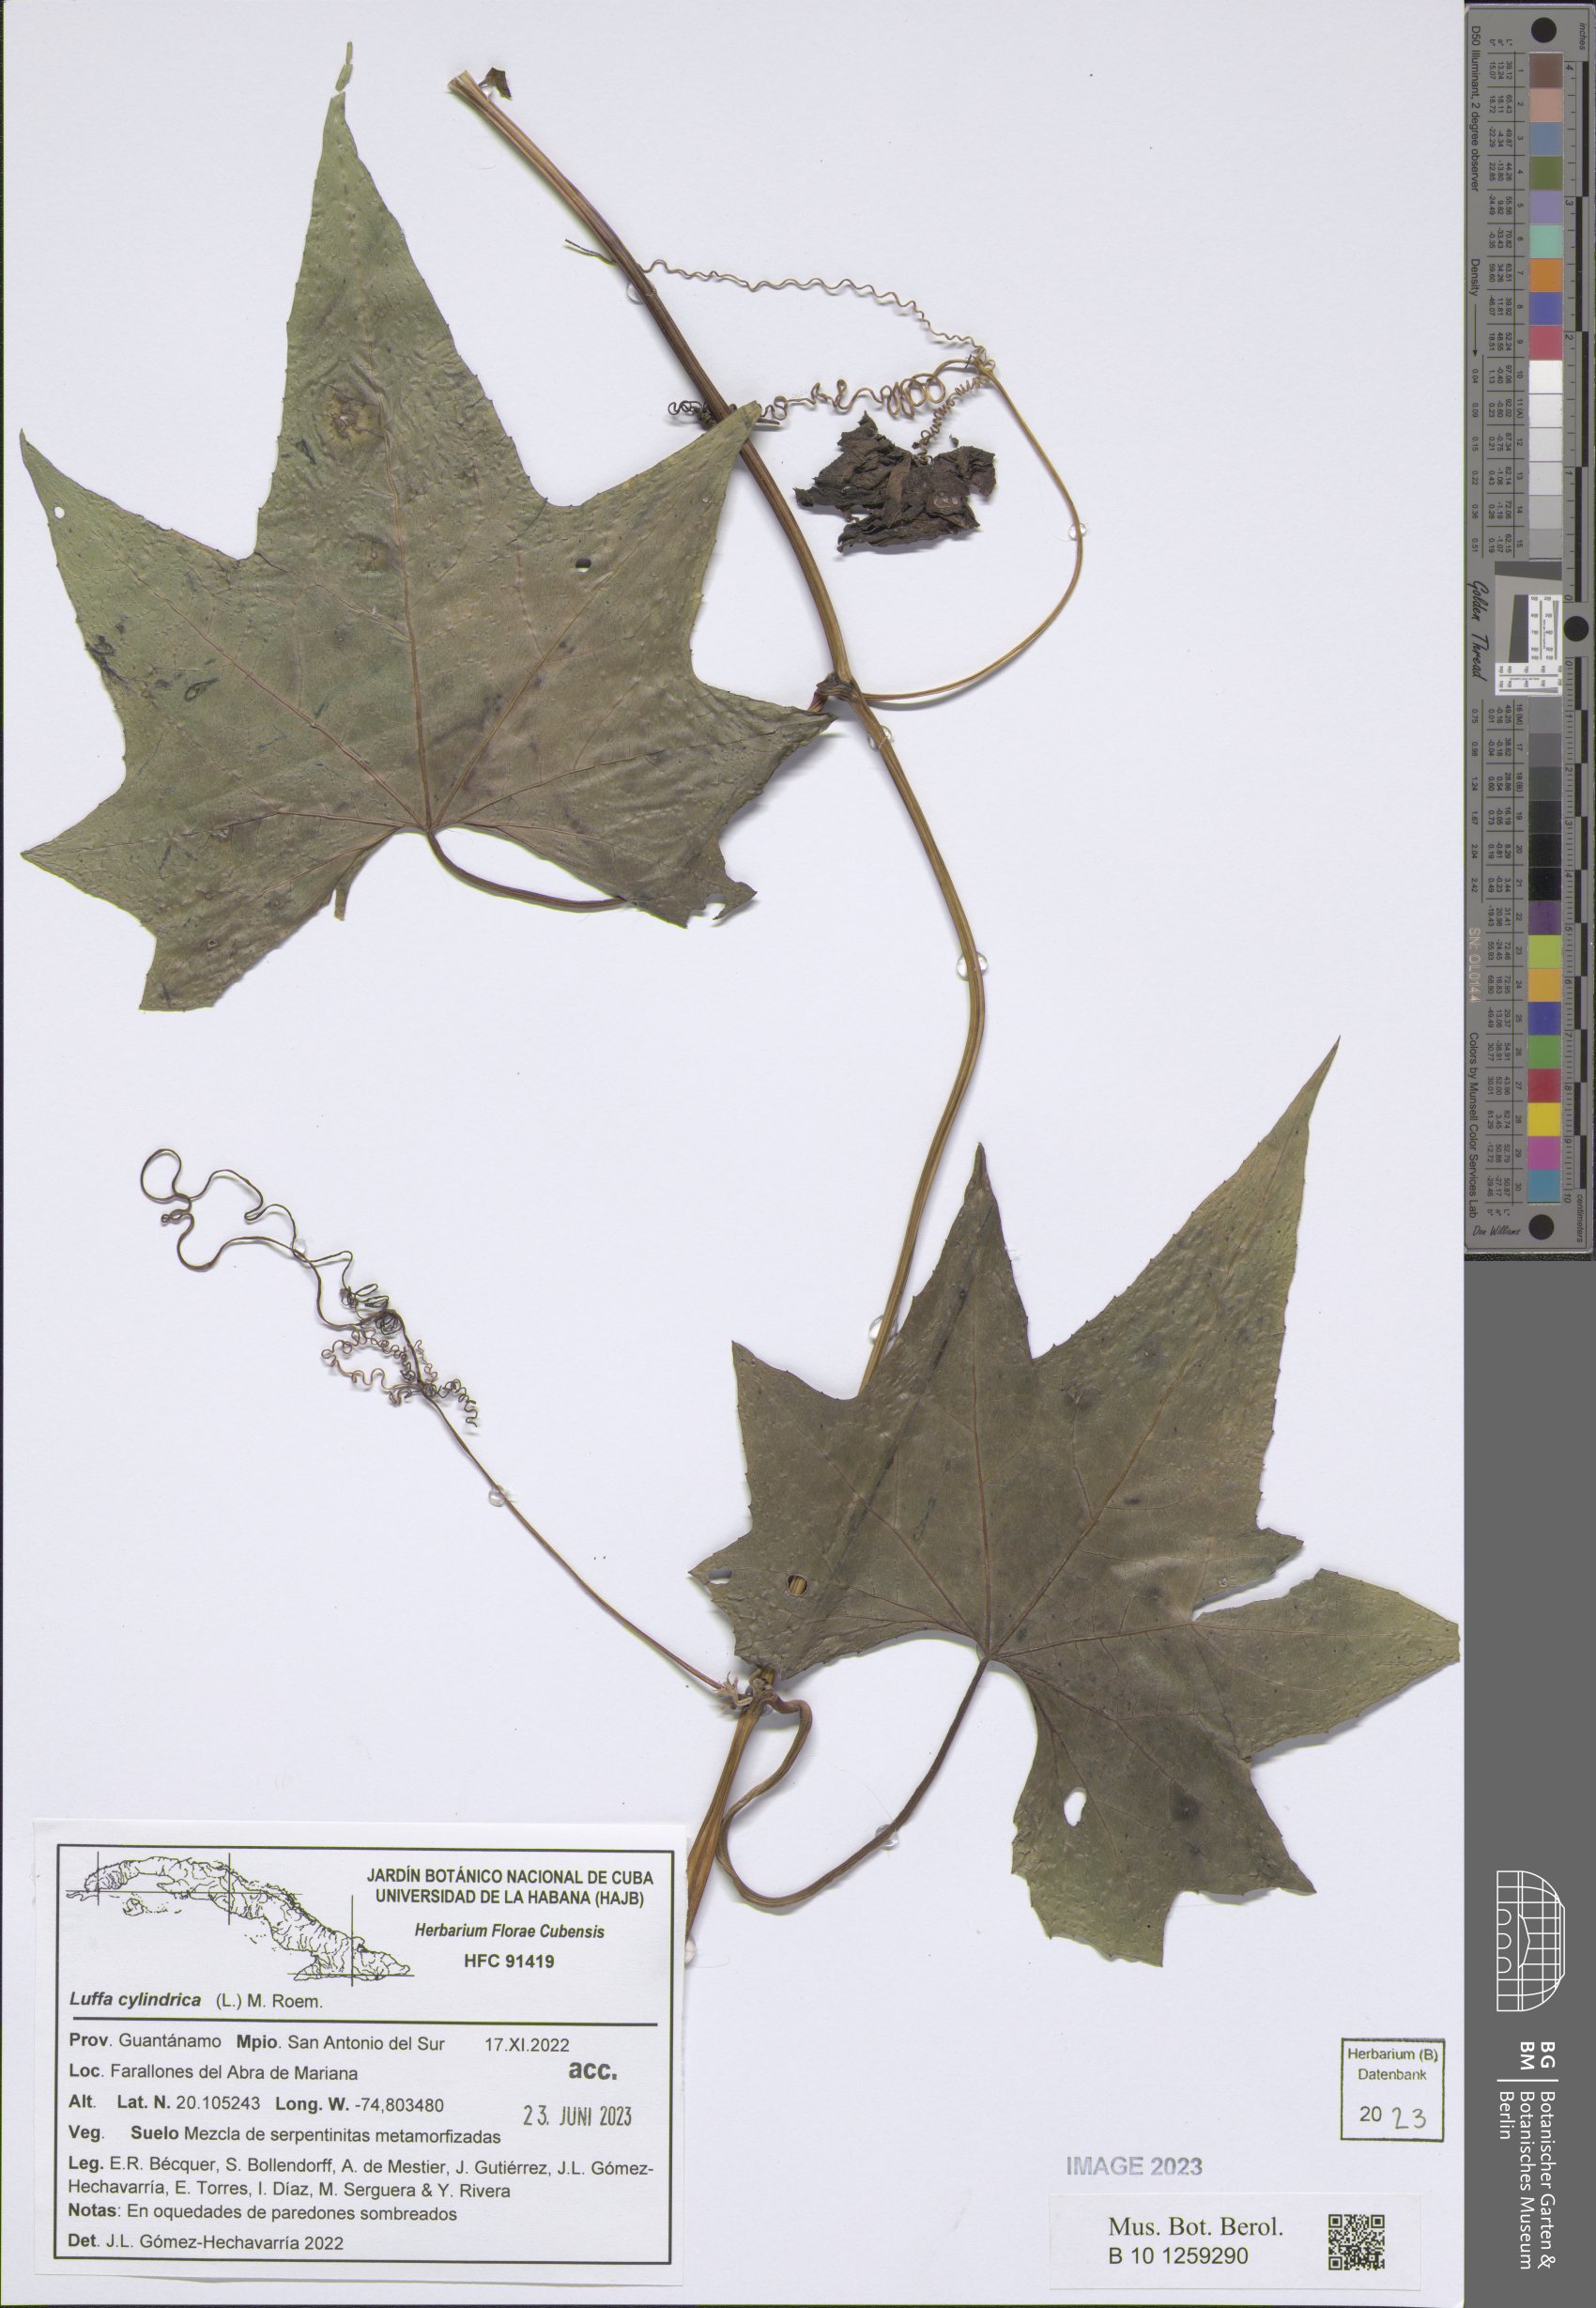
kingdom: Plantae
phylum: Tracheophyta
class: Magnoliopsida
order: Cucurbitales
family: Cucurbitaceae
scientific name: Cucurbitaceae
